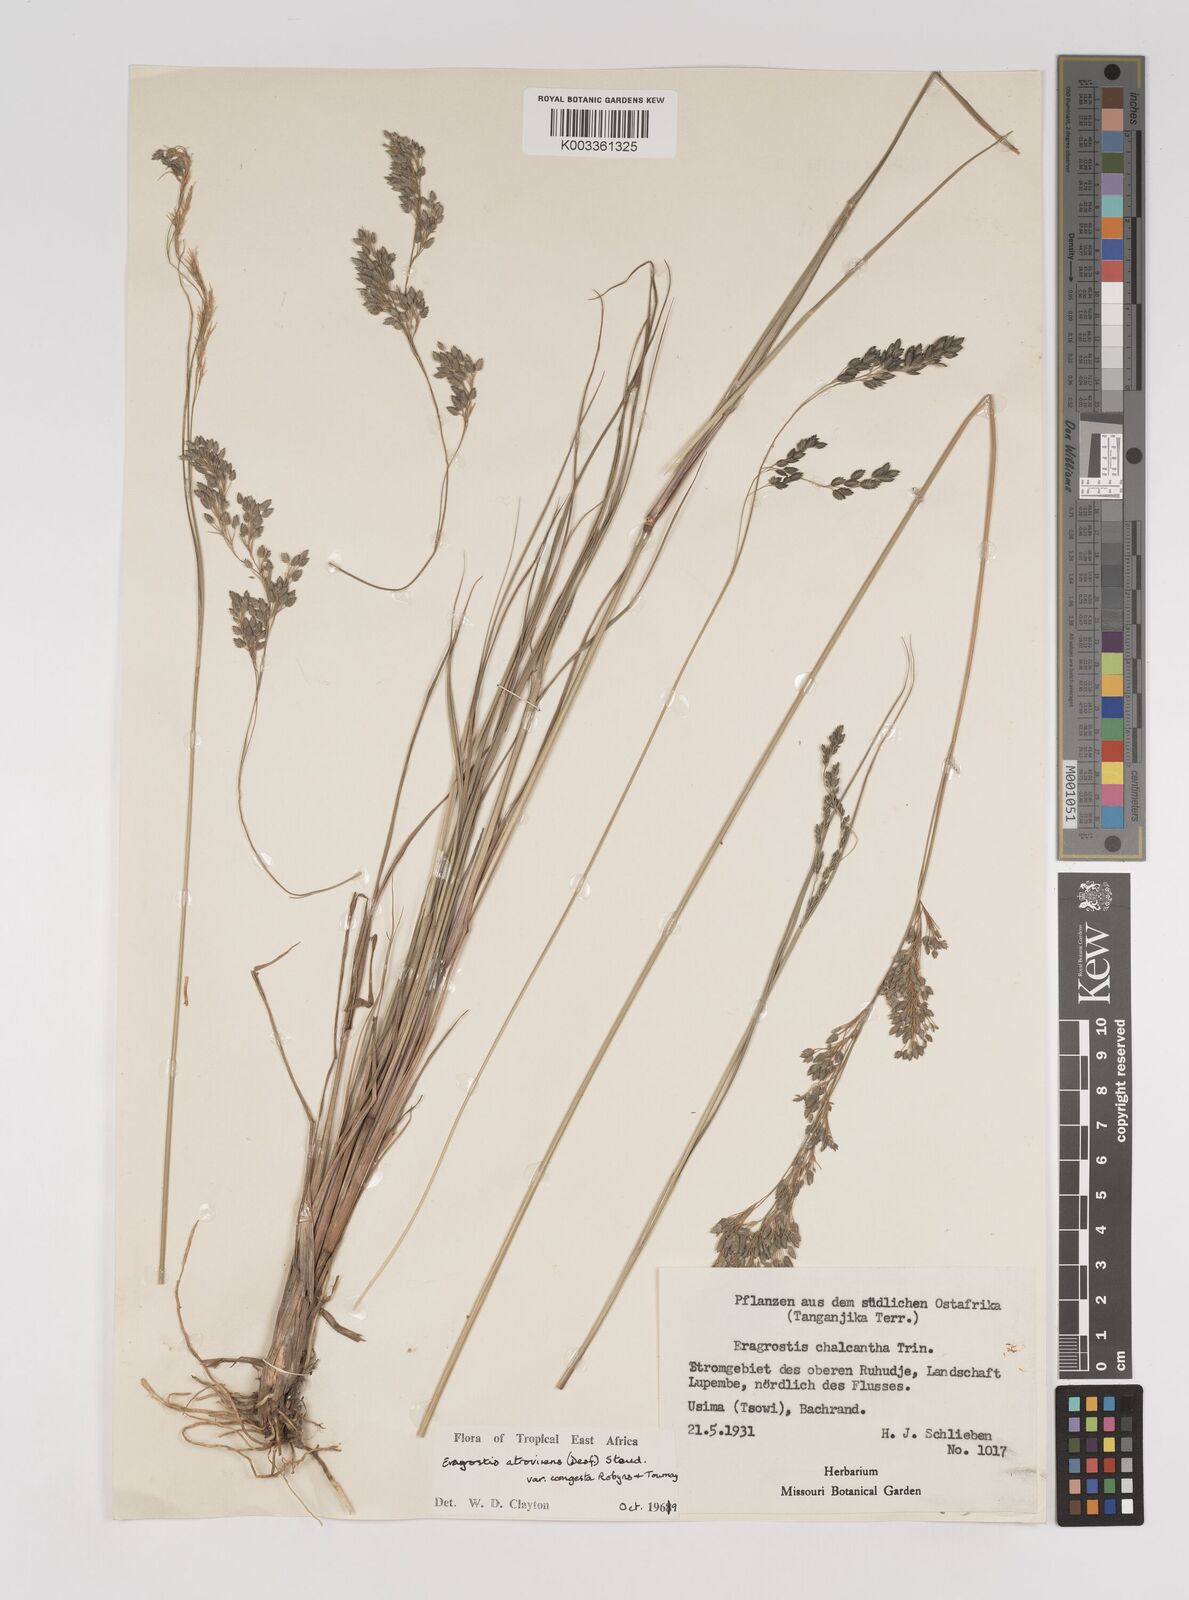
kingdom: Plantae
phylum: Tracheophyta
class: Liliopsida
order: Poales
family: Poaceae
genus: Eragrostis
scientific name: Eragrostis botryodes
